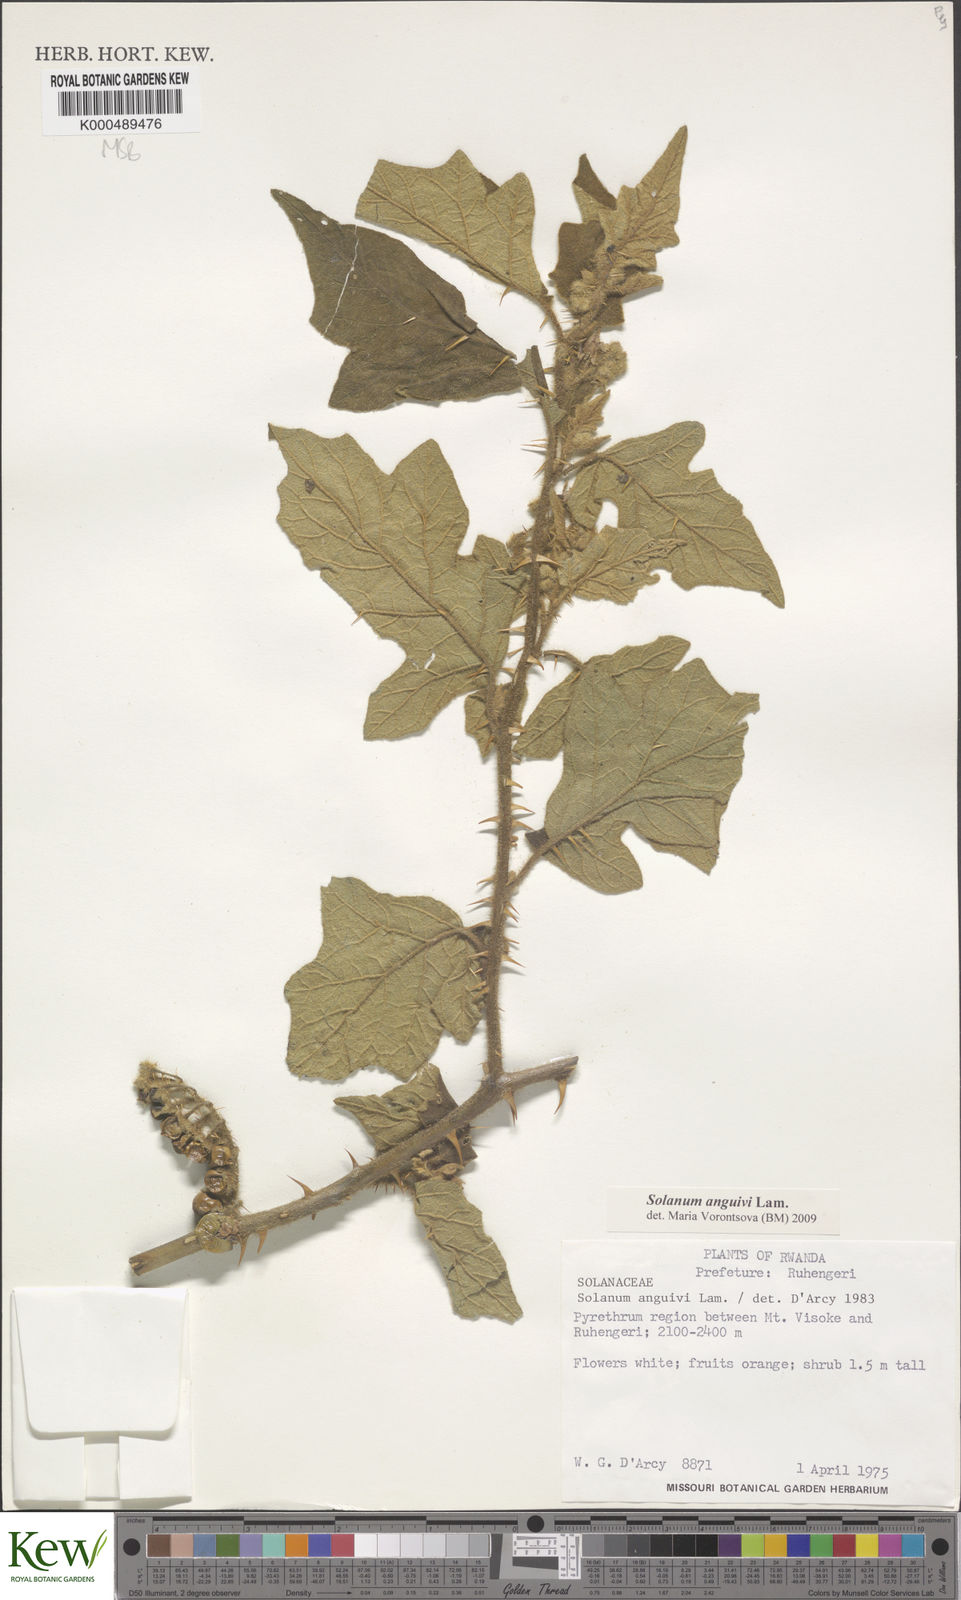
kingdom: Plantae
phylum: Tracheophyta
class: Magnoliopsida
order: Solanales
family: Solanaceae
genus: Solanum
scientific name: Solanum anguivi
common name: Forest bitterberry
